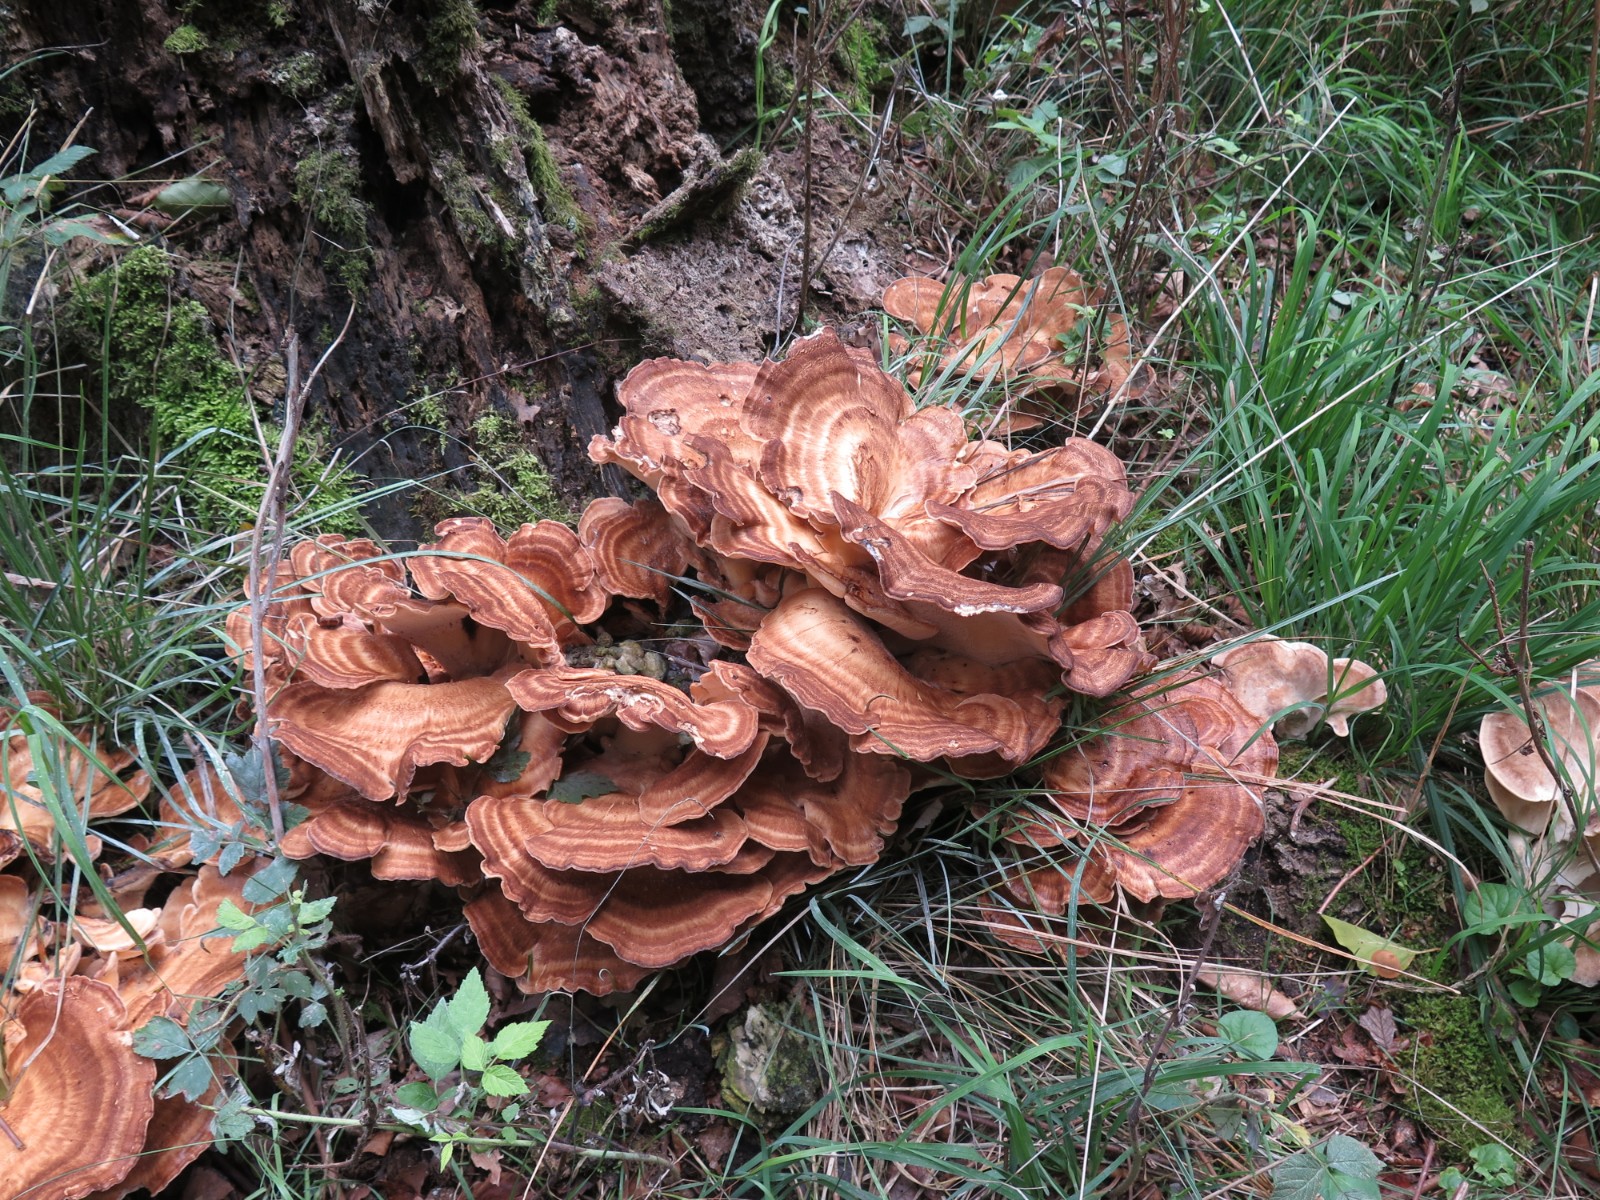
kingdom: Fungi
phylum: Basidiomycota
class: Agaricomycetes
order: Polyporales
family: Meripilaceae
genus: Meripilus
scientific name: Meripilus giganteus
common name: kæmpeporesvamp
